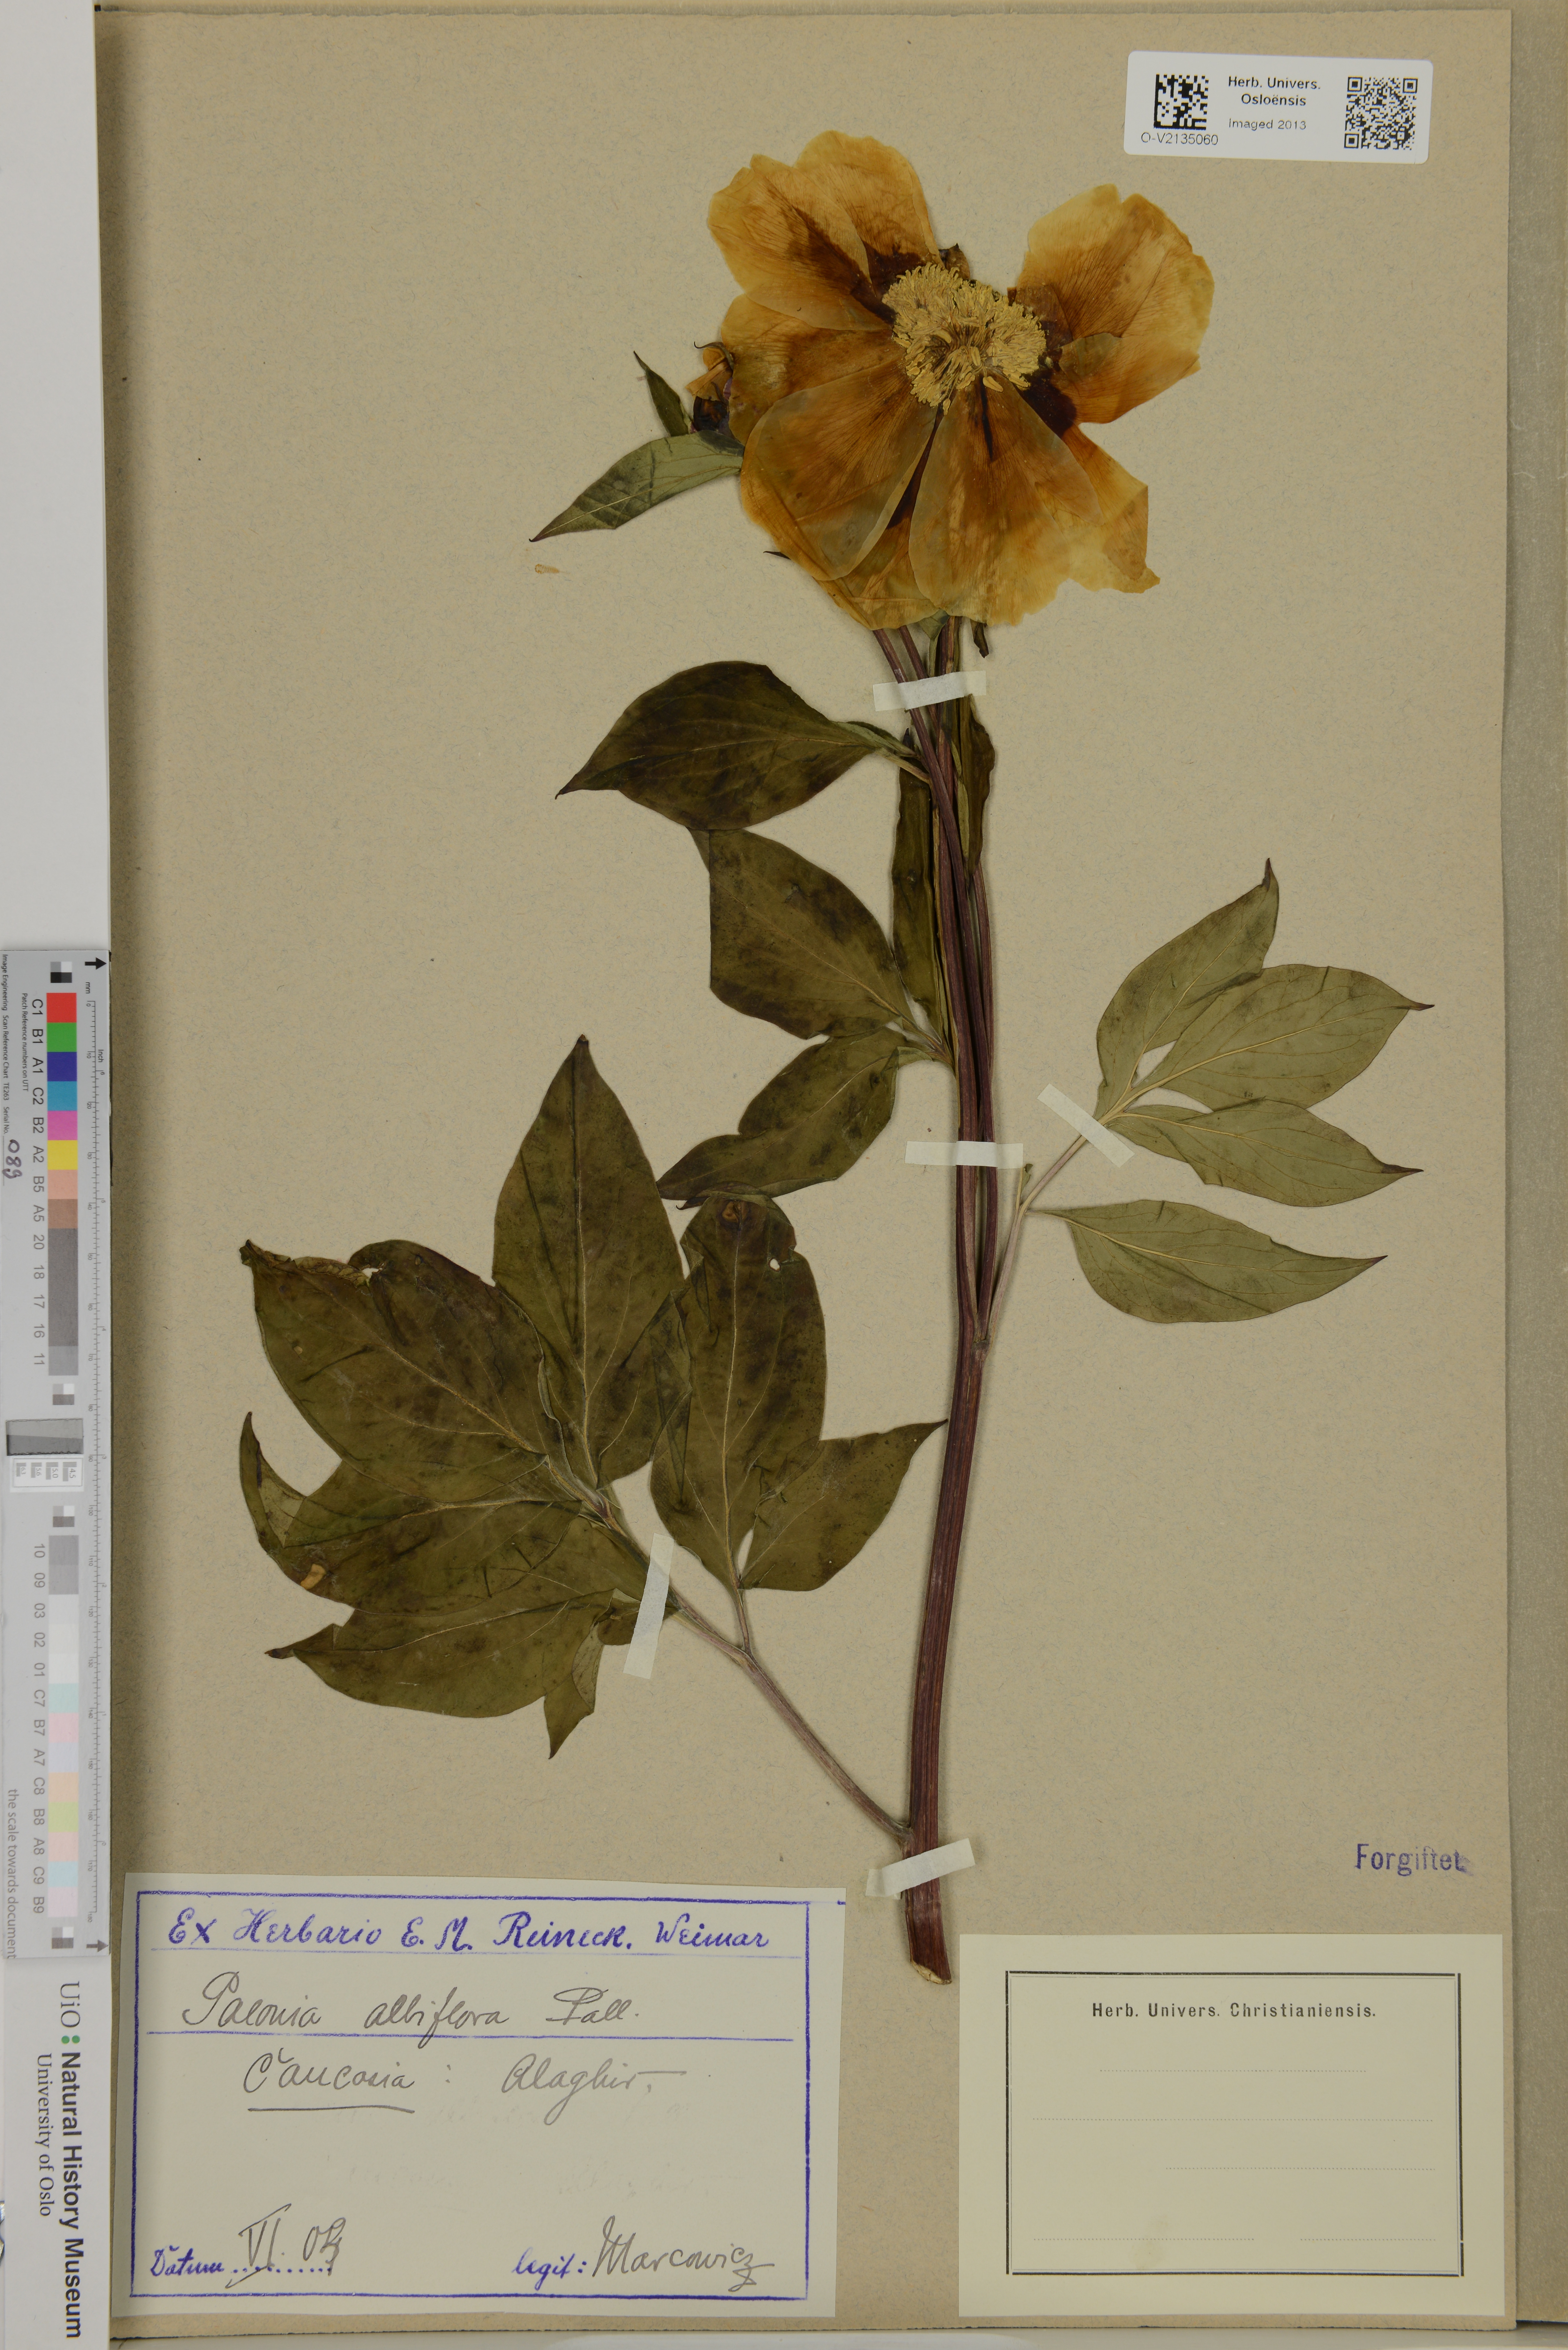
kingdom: Plantae
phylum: Tracheophyta
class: Magnoliopsida
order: Saxifragales
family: Paeoniaceae
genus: Paeonia
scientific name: Paeonia lactiflora
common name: Chinese peony
